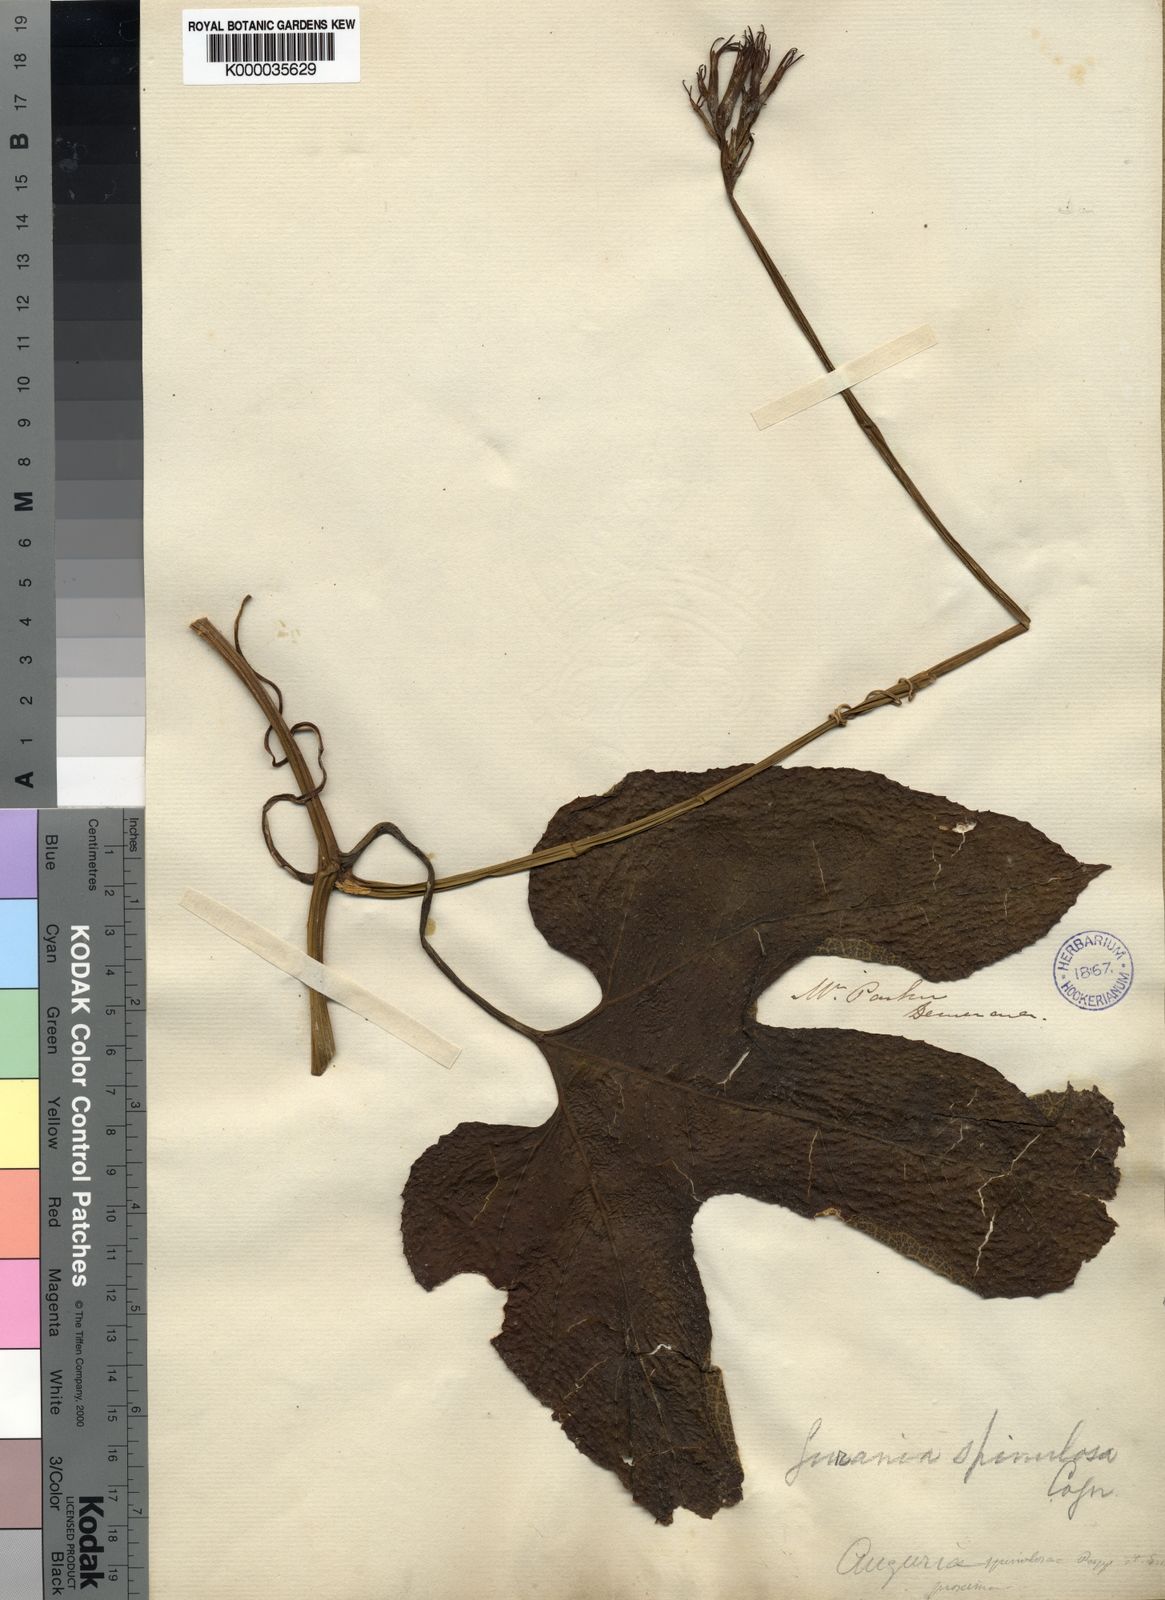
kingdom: Plantae
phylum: Tracheophyta
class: Magnoliopsida
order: Cucurbitales
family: Cucurbitaceae
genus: Gurania
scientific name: Gurania lobata
